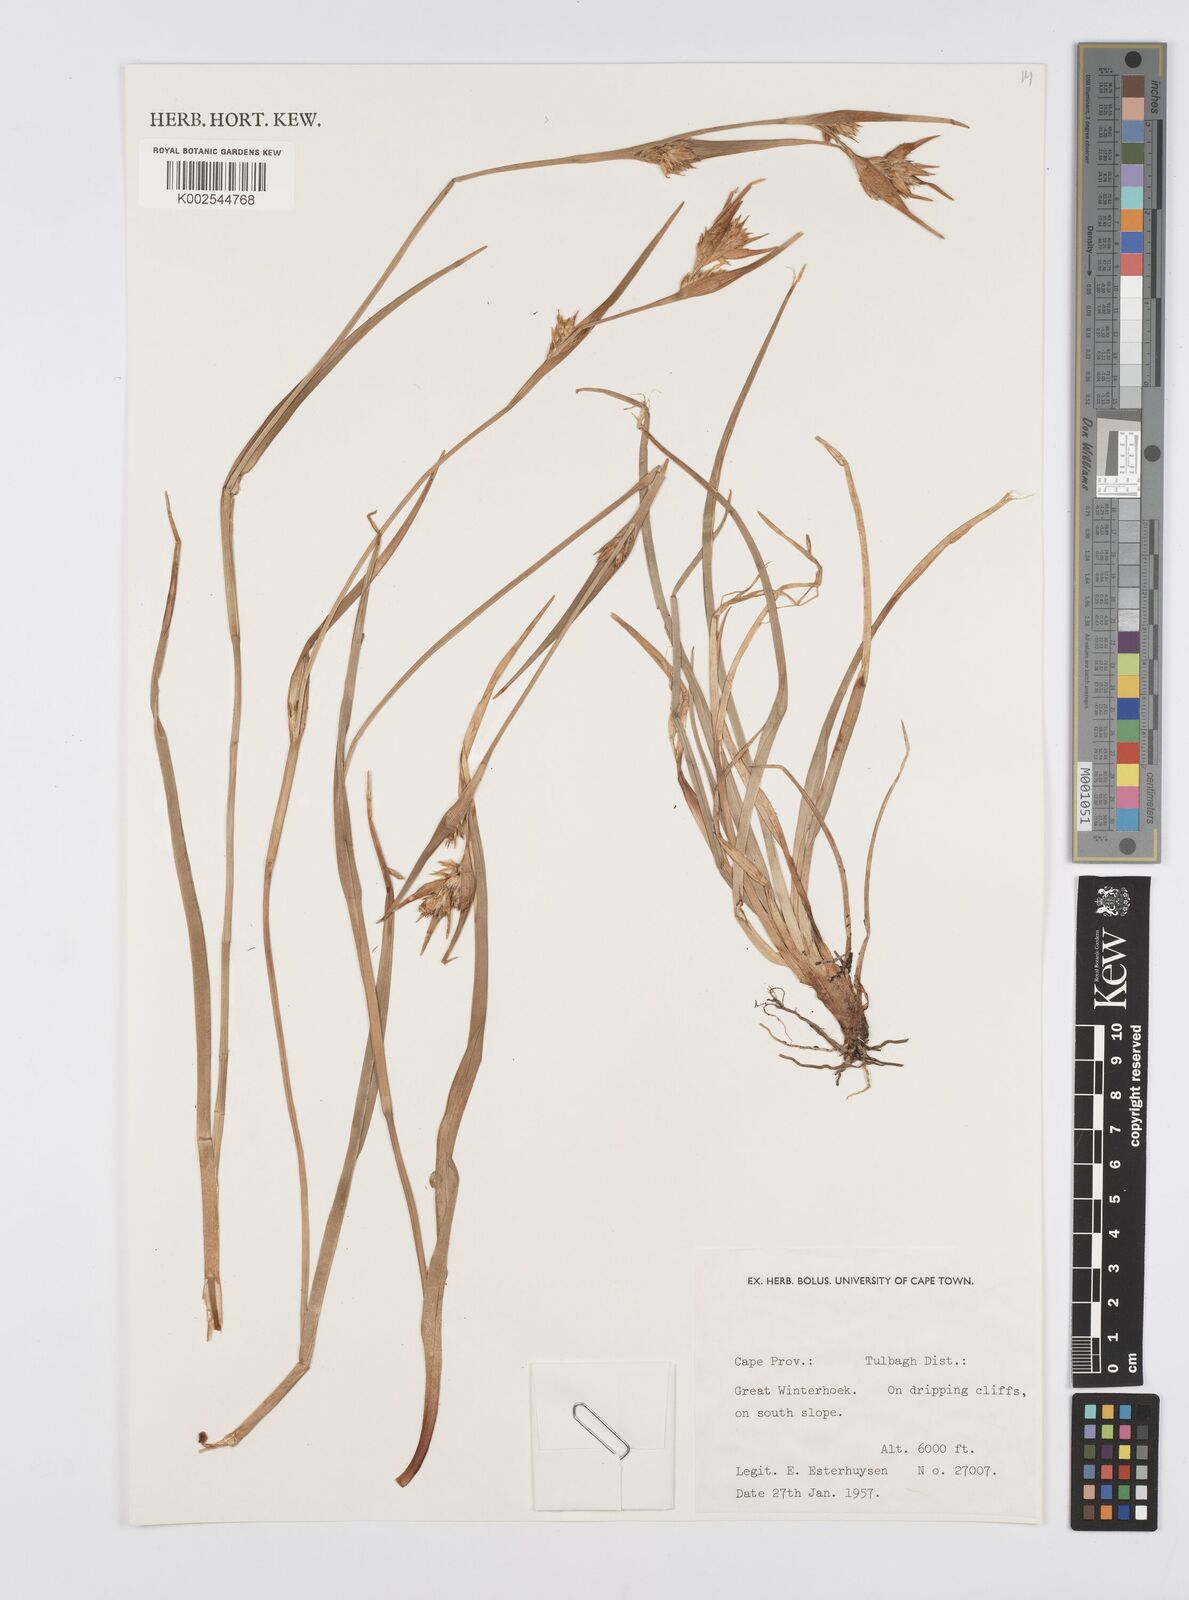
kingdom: Plantae
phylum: Tracheophyta
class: Liliopsida
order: Poales
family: Cyperaceae
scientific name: Cyperaceae
